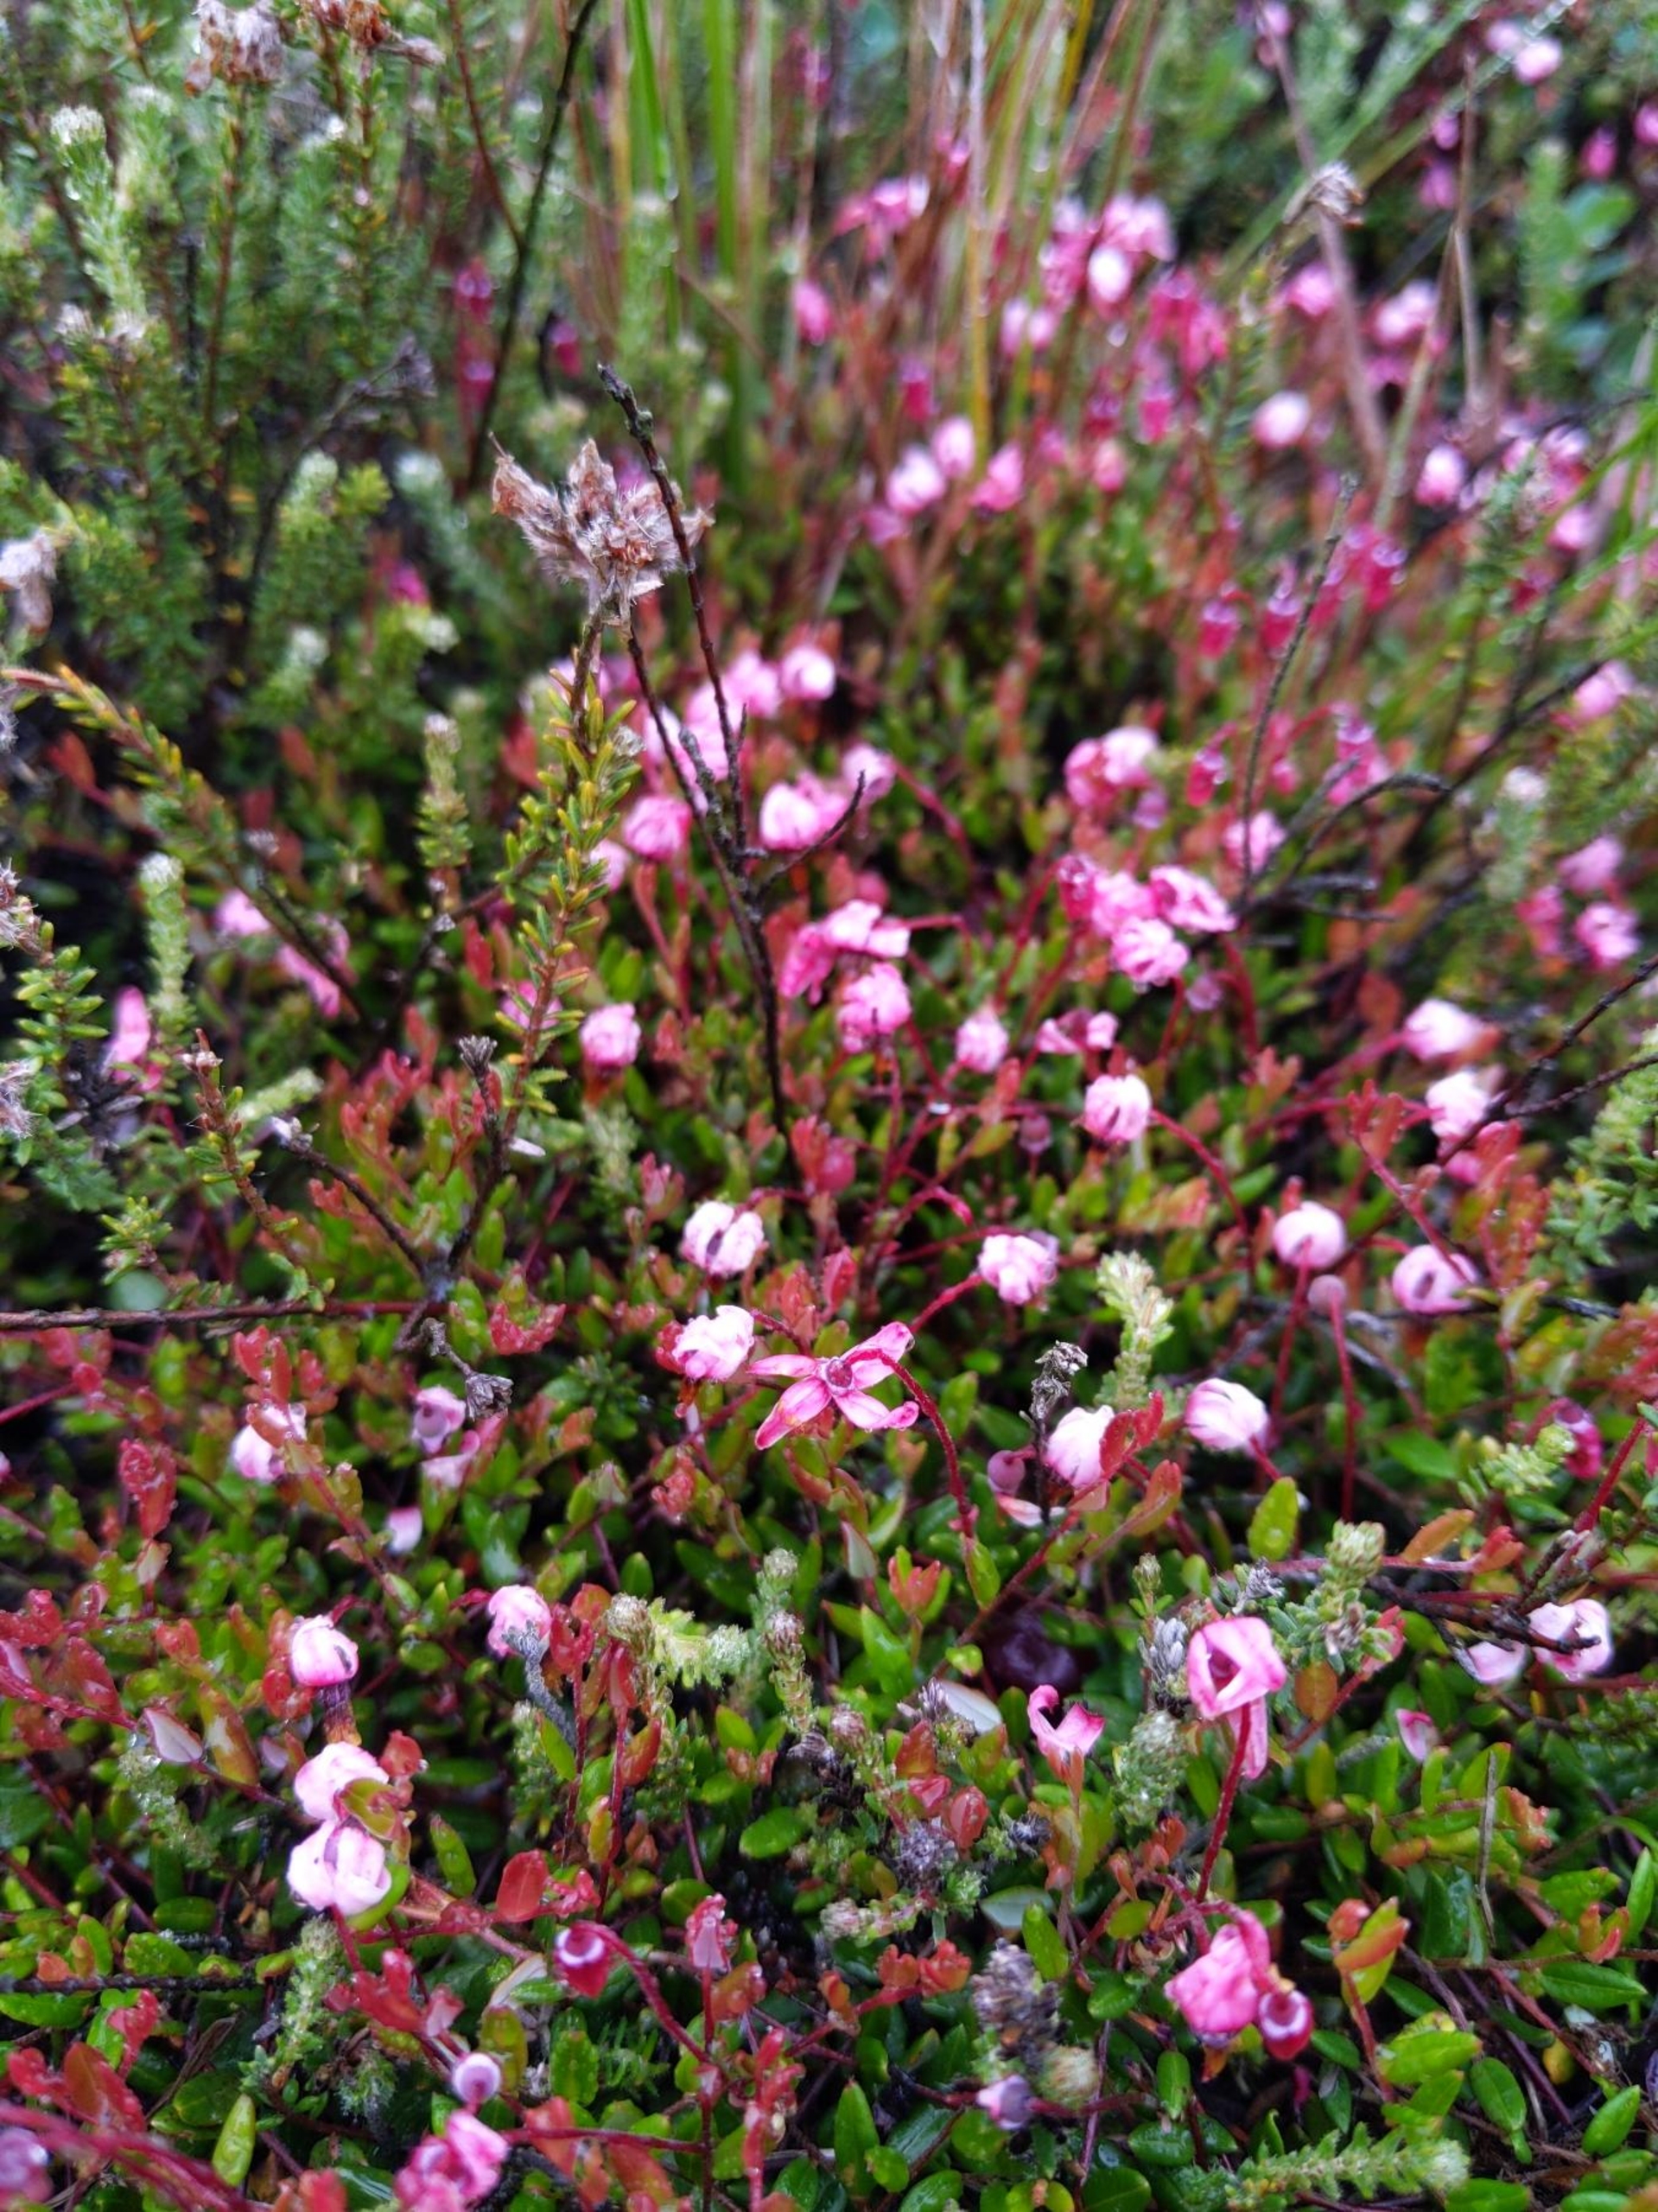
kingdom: Plantae
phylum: Tracheophyta
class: Magnoliopsida
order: Ericales
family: Ericaceae
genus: Vaccinium
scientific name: Vaccinium oxycoccos
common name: Tranebær
